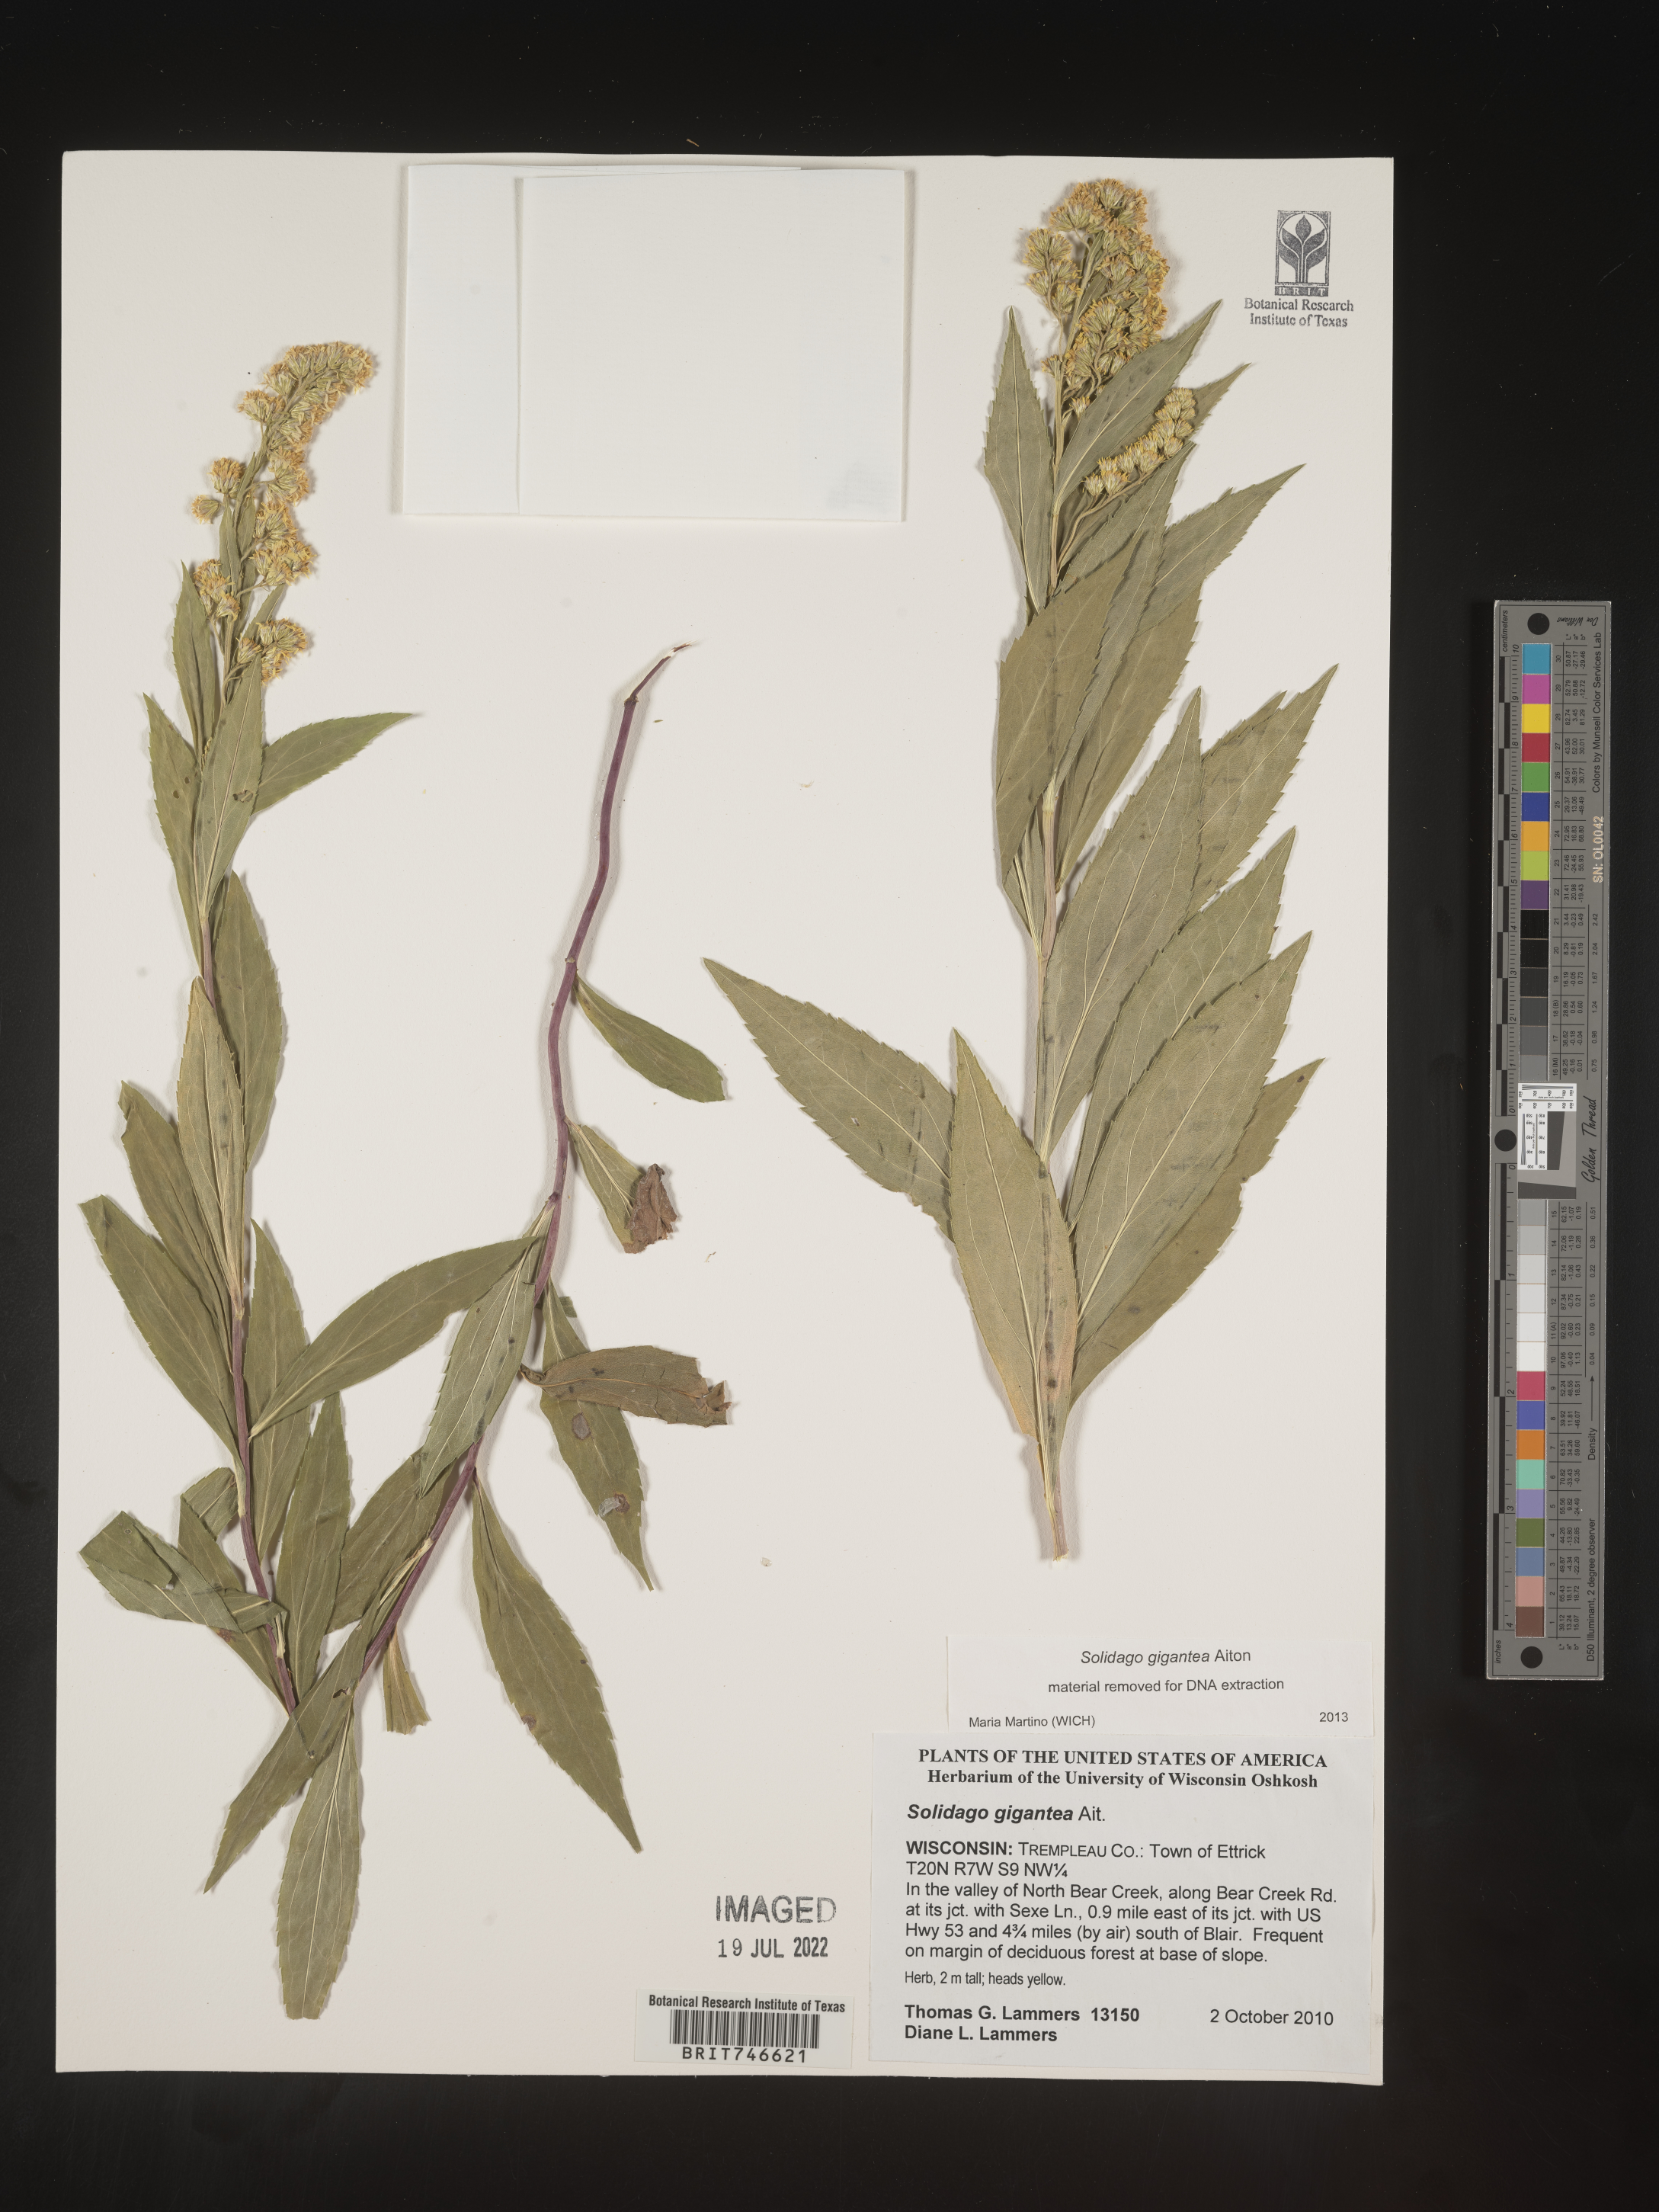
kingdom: Plantae
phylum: Tracheophyta
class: Magnoliopsida
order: Asterales
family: Asteraceae
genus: Solidago
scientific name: Solidago gigantea
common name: Giant goldenrod
